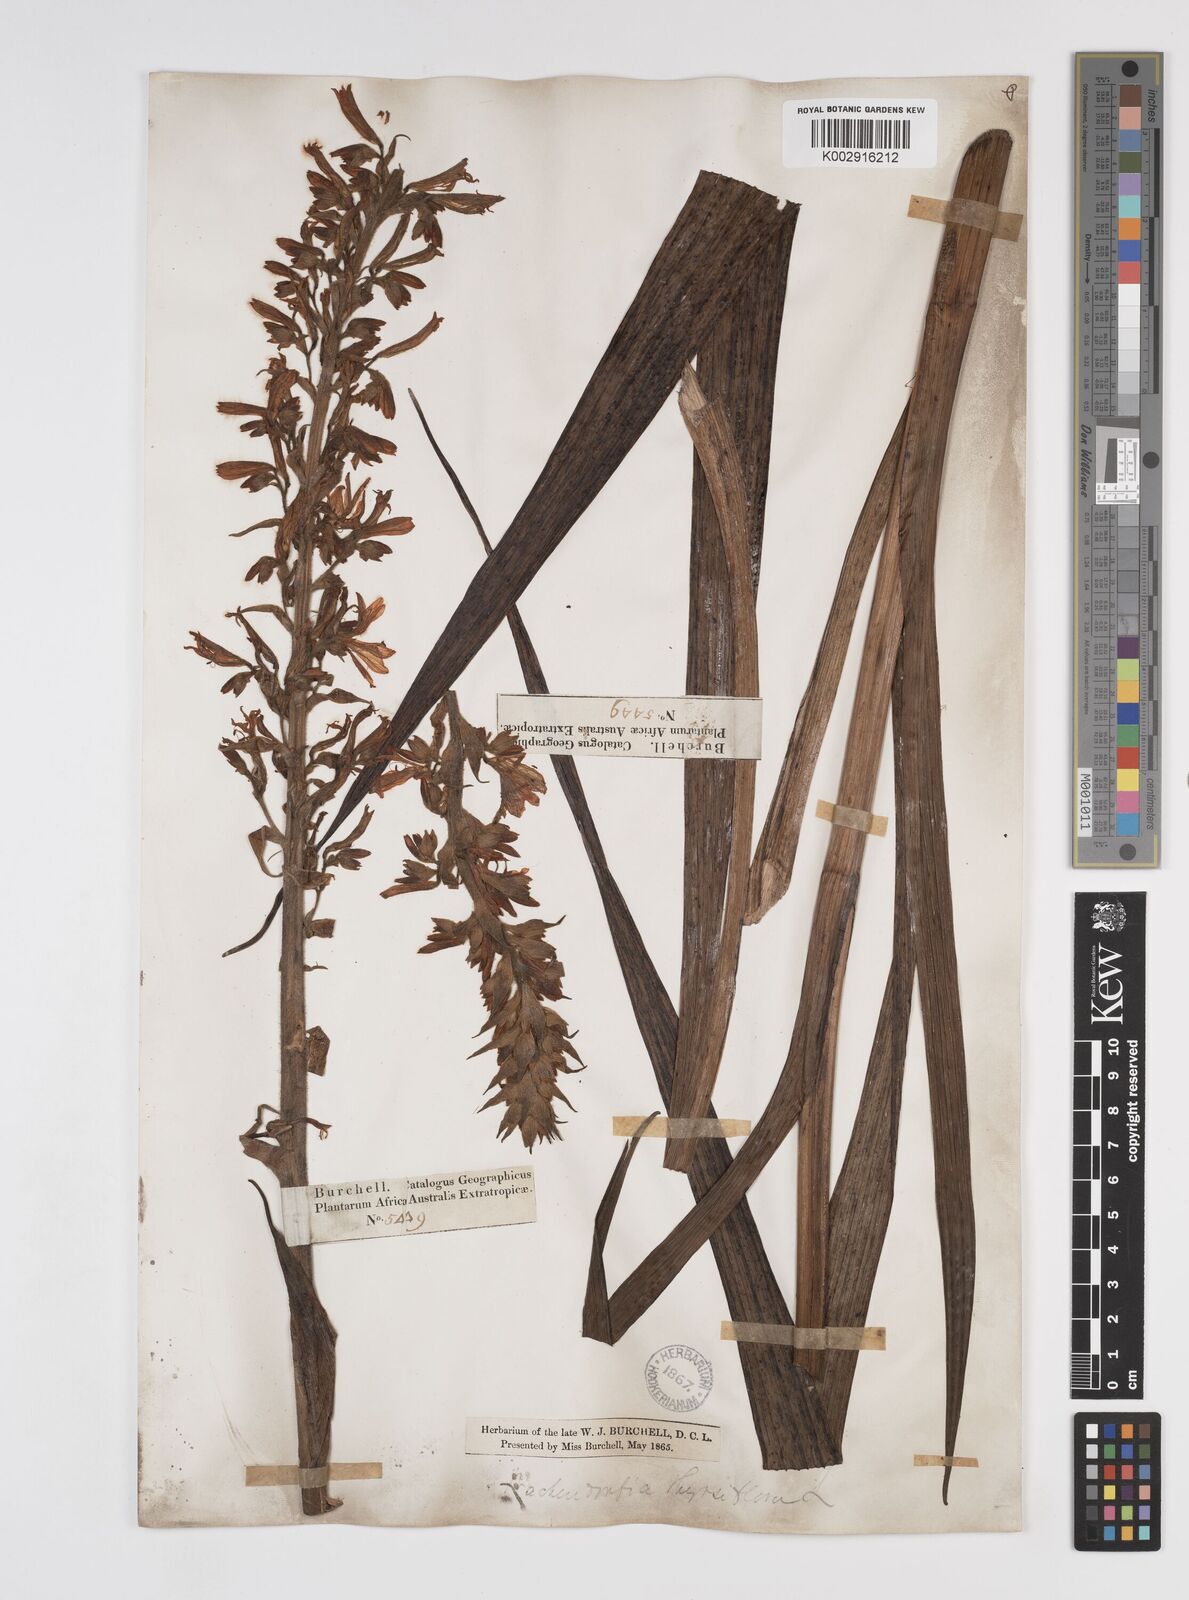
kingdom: Plantae
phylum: Tracheophyta
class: Liliopsida
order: Commelinales
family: Haemodoraceae
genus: Wachendorfia
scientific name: Wachendorfia thyrsiflora
